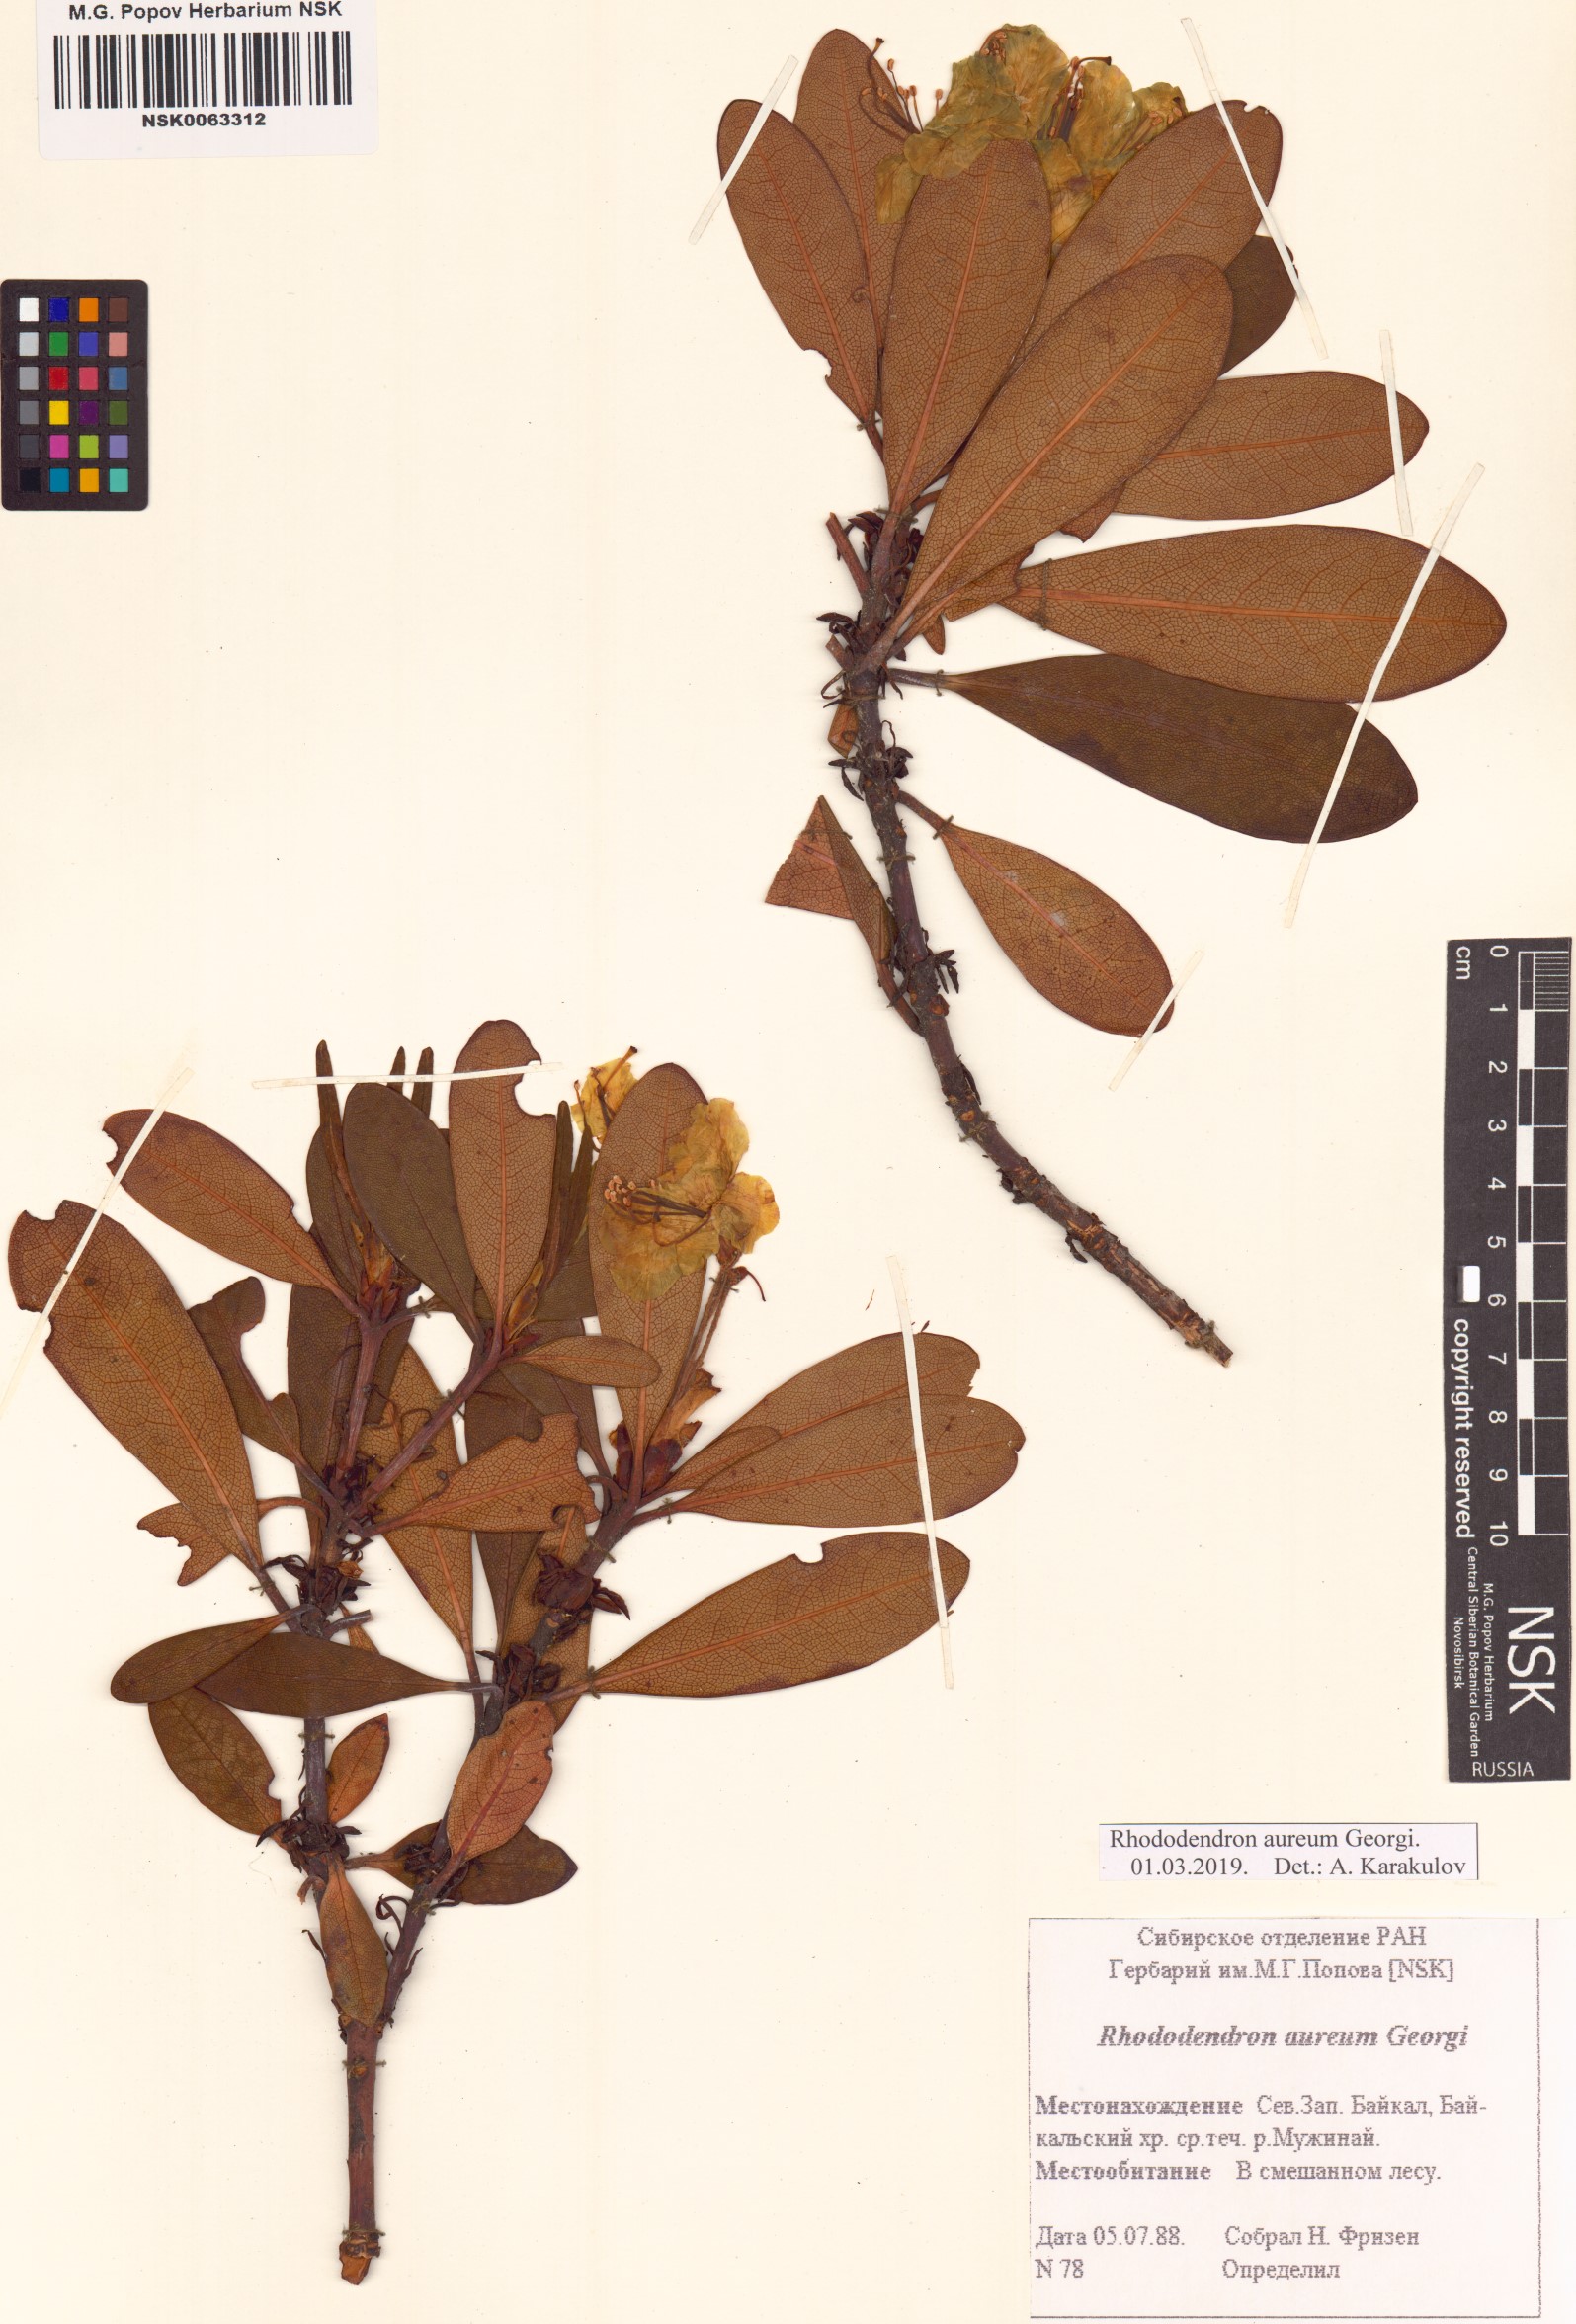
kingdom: Plantae
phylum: Tracheophyta
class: Magnoliopsida
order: Ericales
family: Ericaceae
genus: Rhododendron
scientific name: Rhododendron aureum
